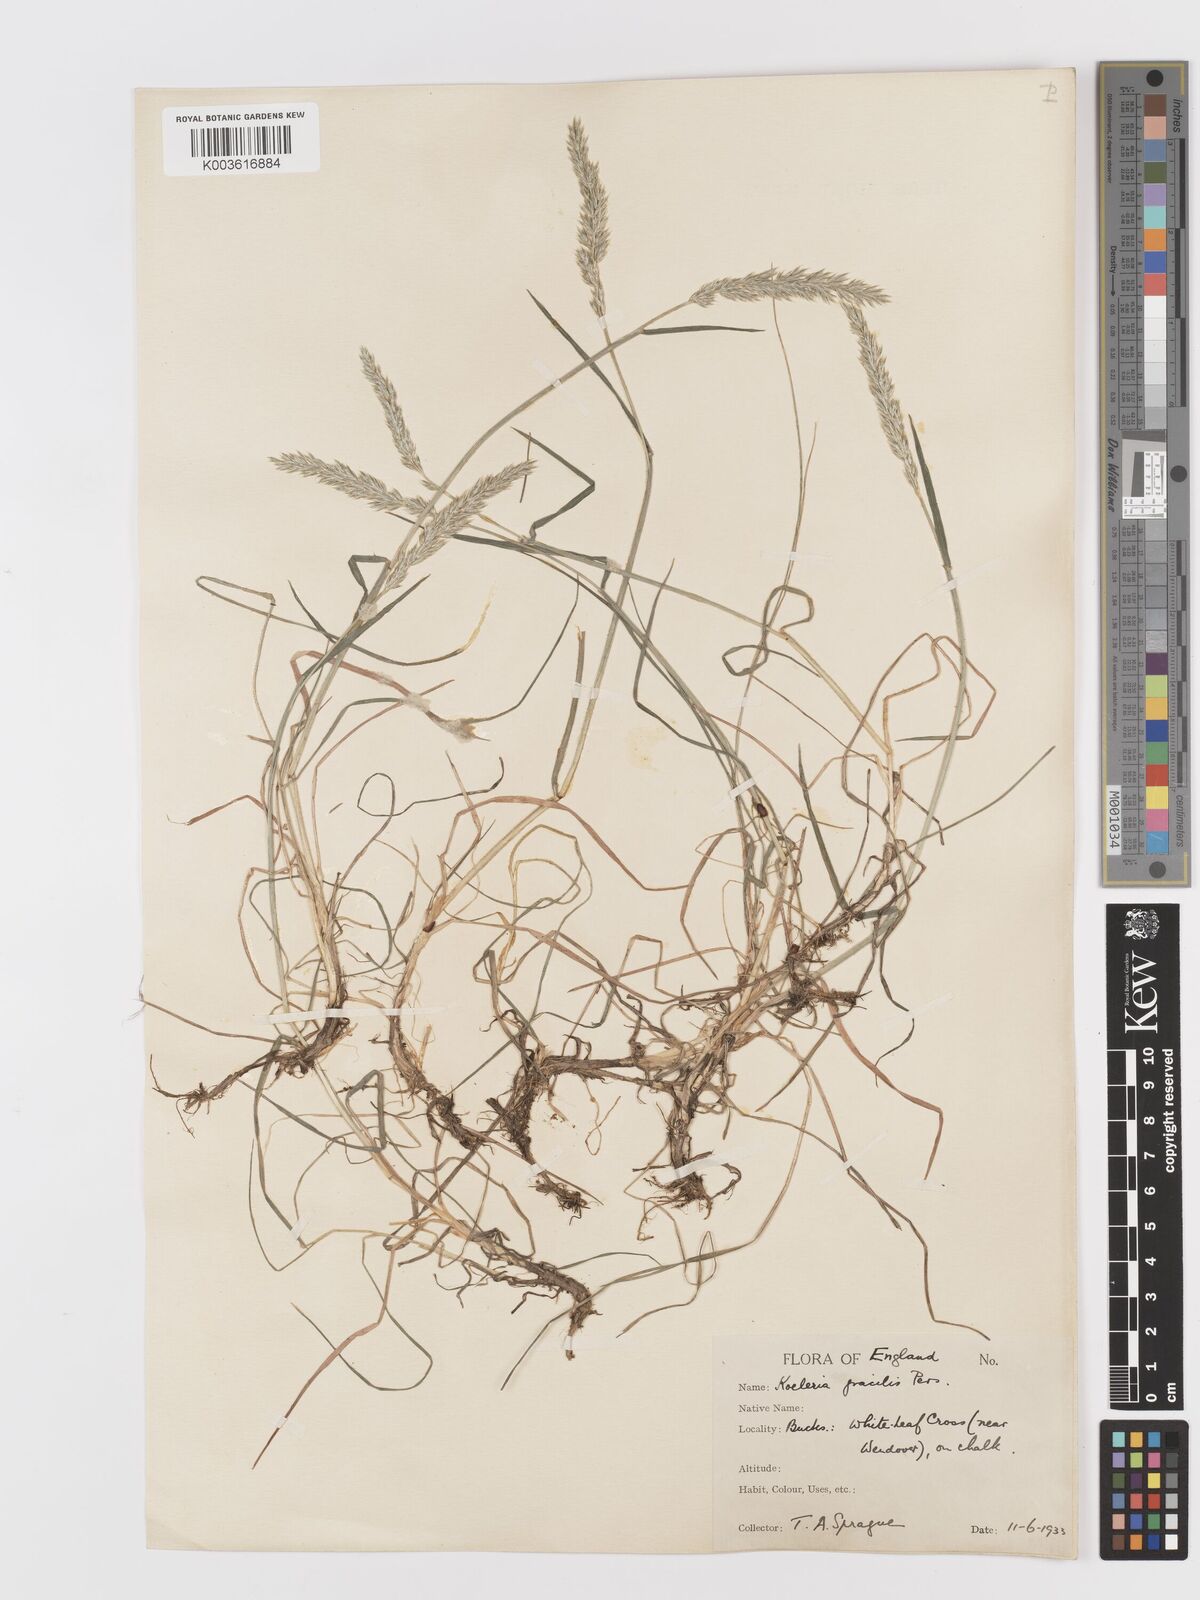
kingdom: Plantae
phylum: Tracheophyta
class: Liliopsida
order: Poales
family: Poaceae
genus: Koeleria
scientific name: Koeleria macrantha
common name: Crested hair-grass
